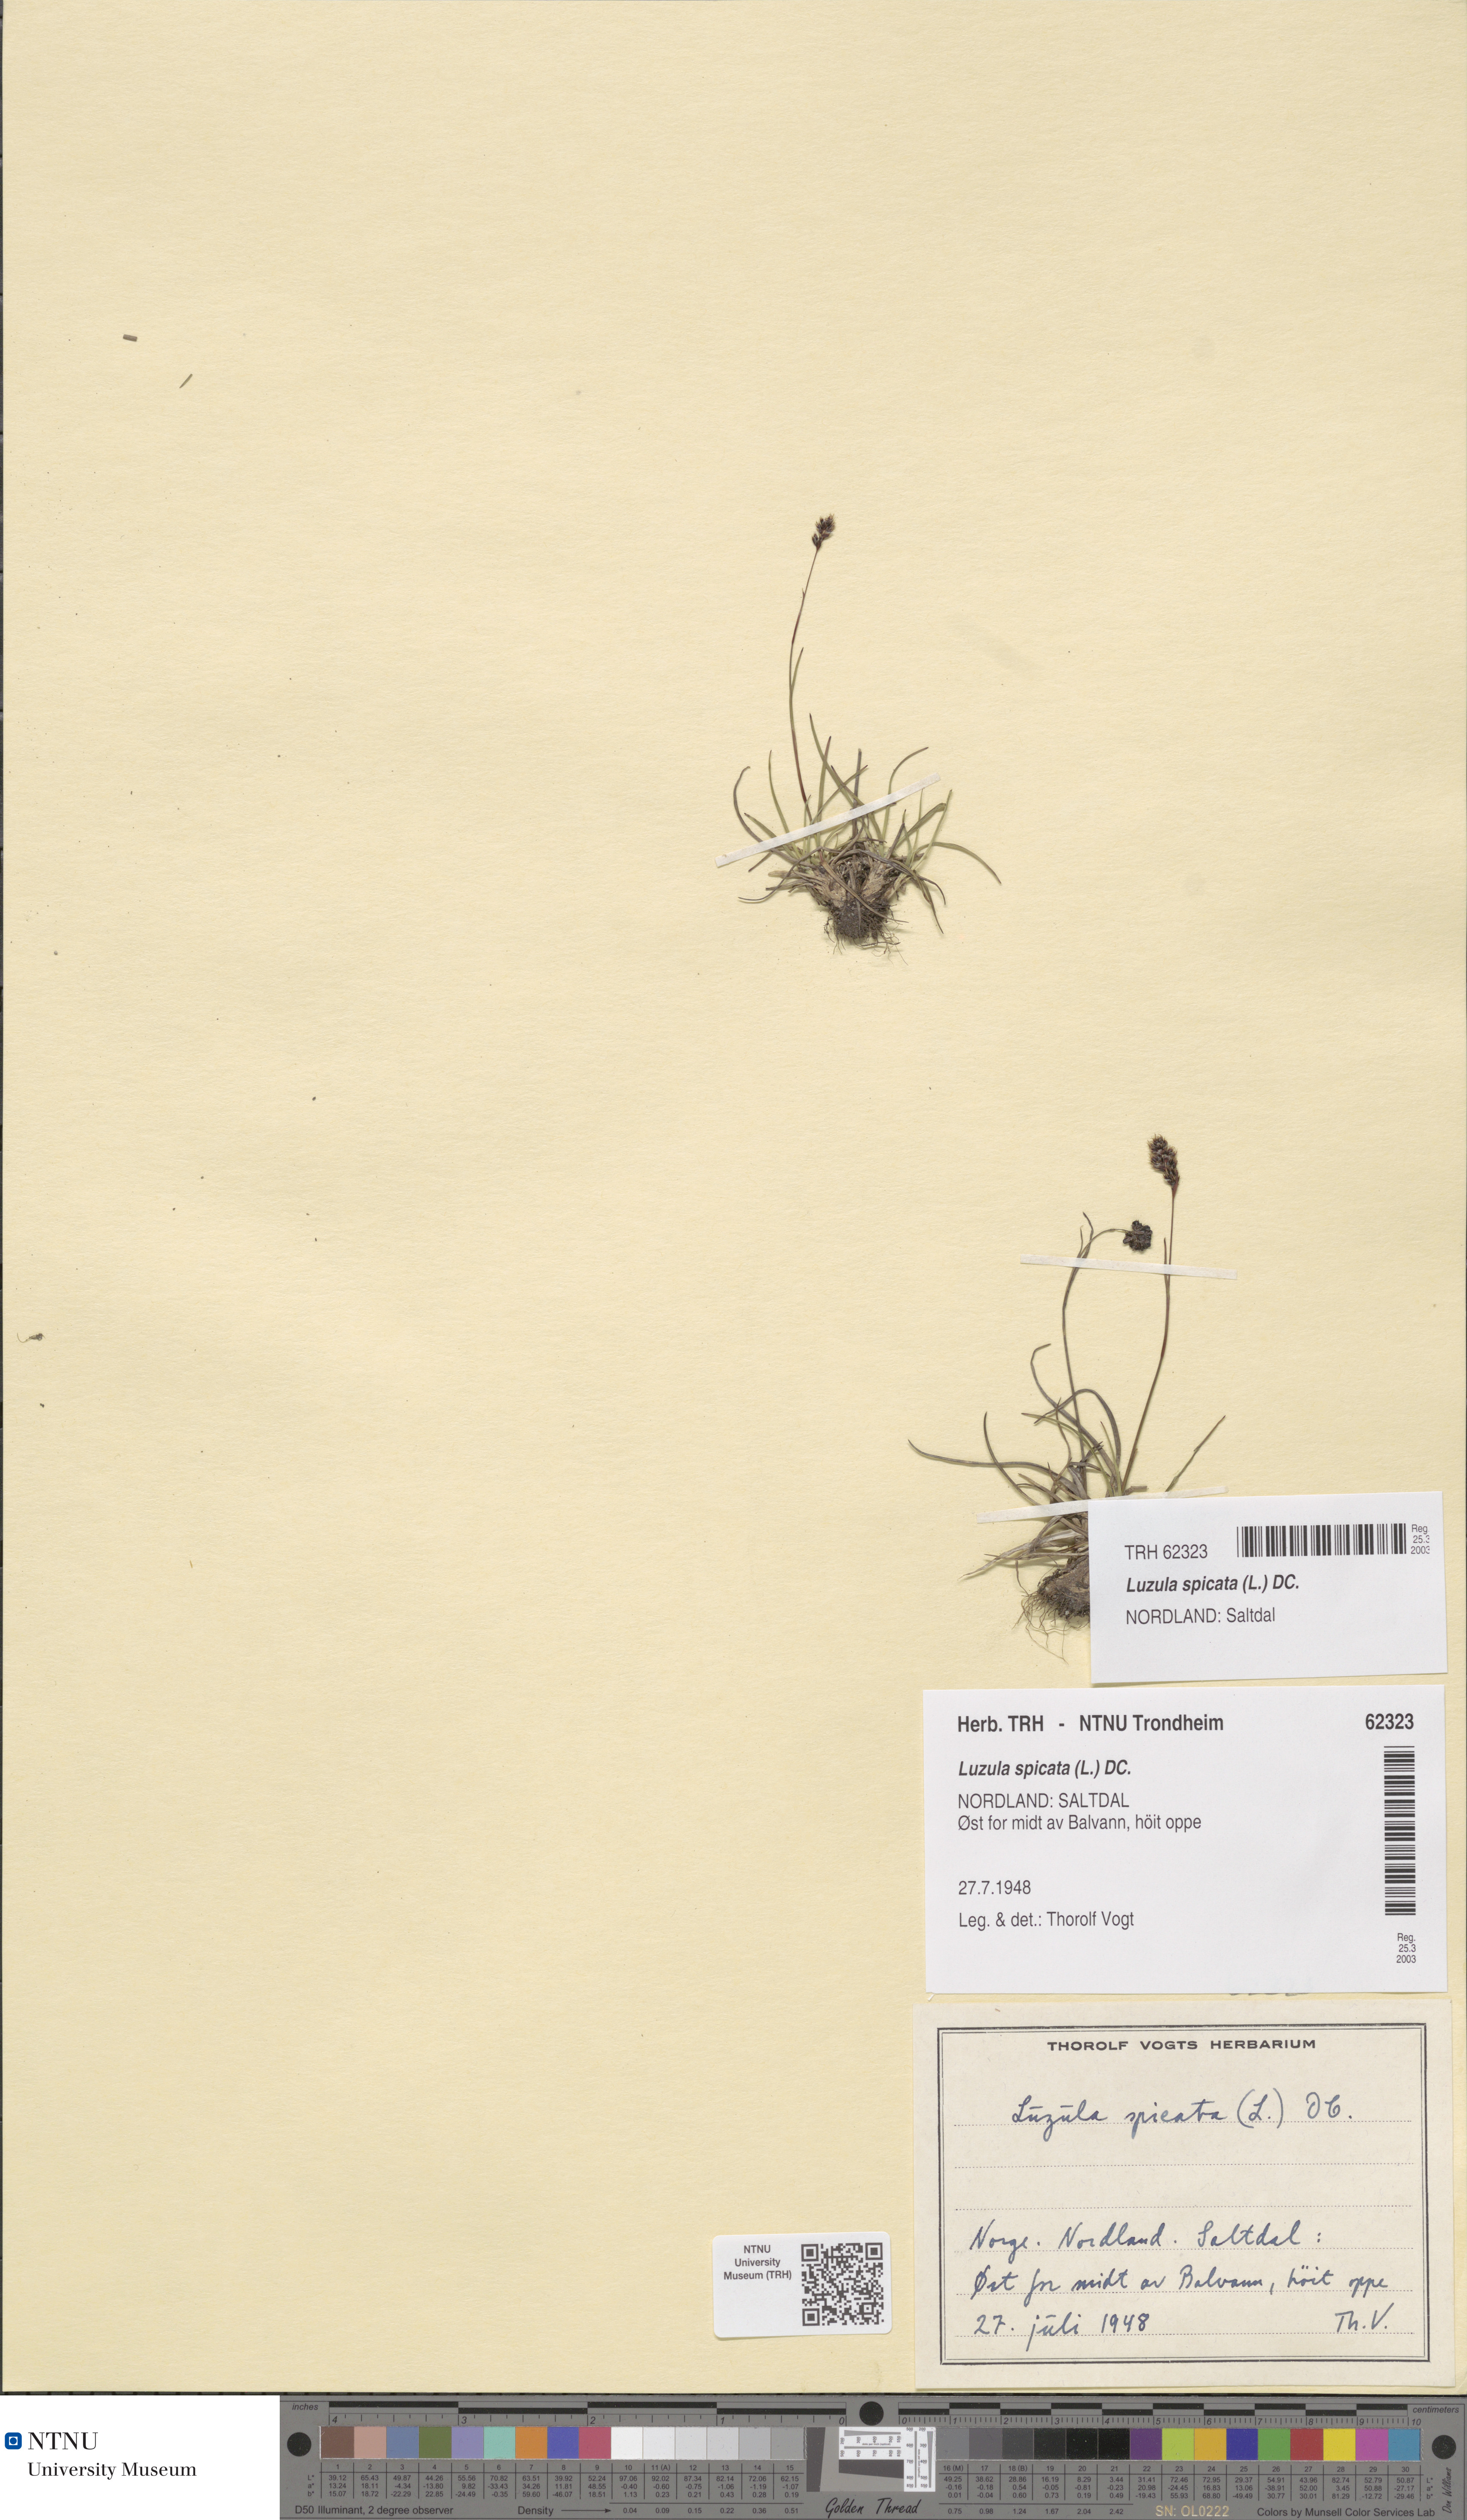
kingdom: Plantae
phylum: Tracheophyta
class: Liliopsida
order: Poales
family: Juncaceae
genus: Luzula
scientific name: Luzula spicata
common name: Spiked wood-rush
